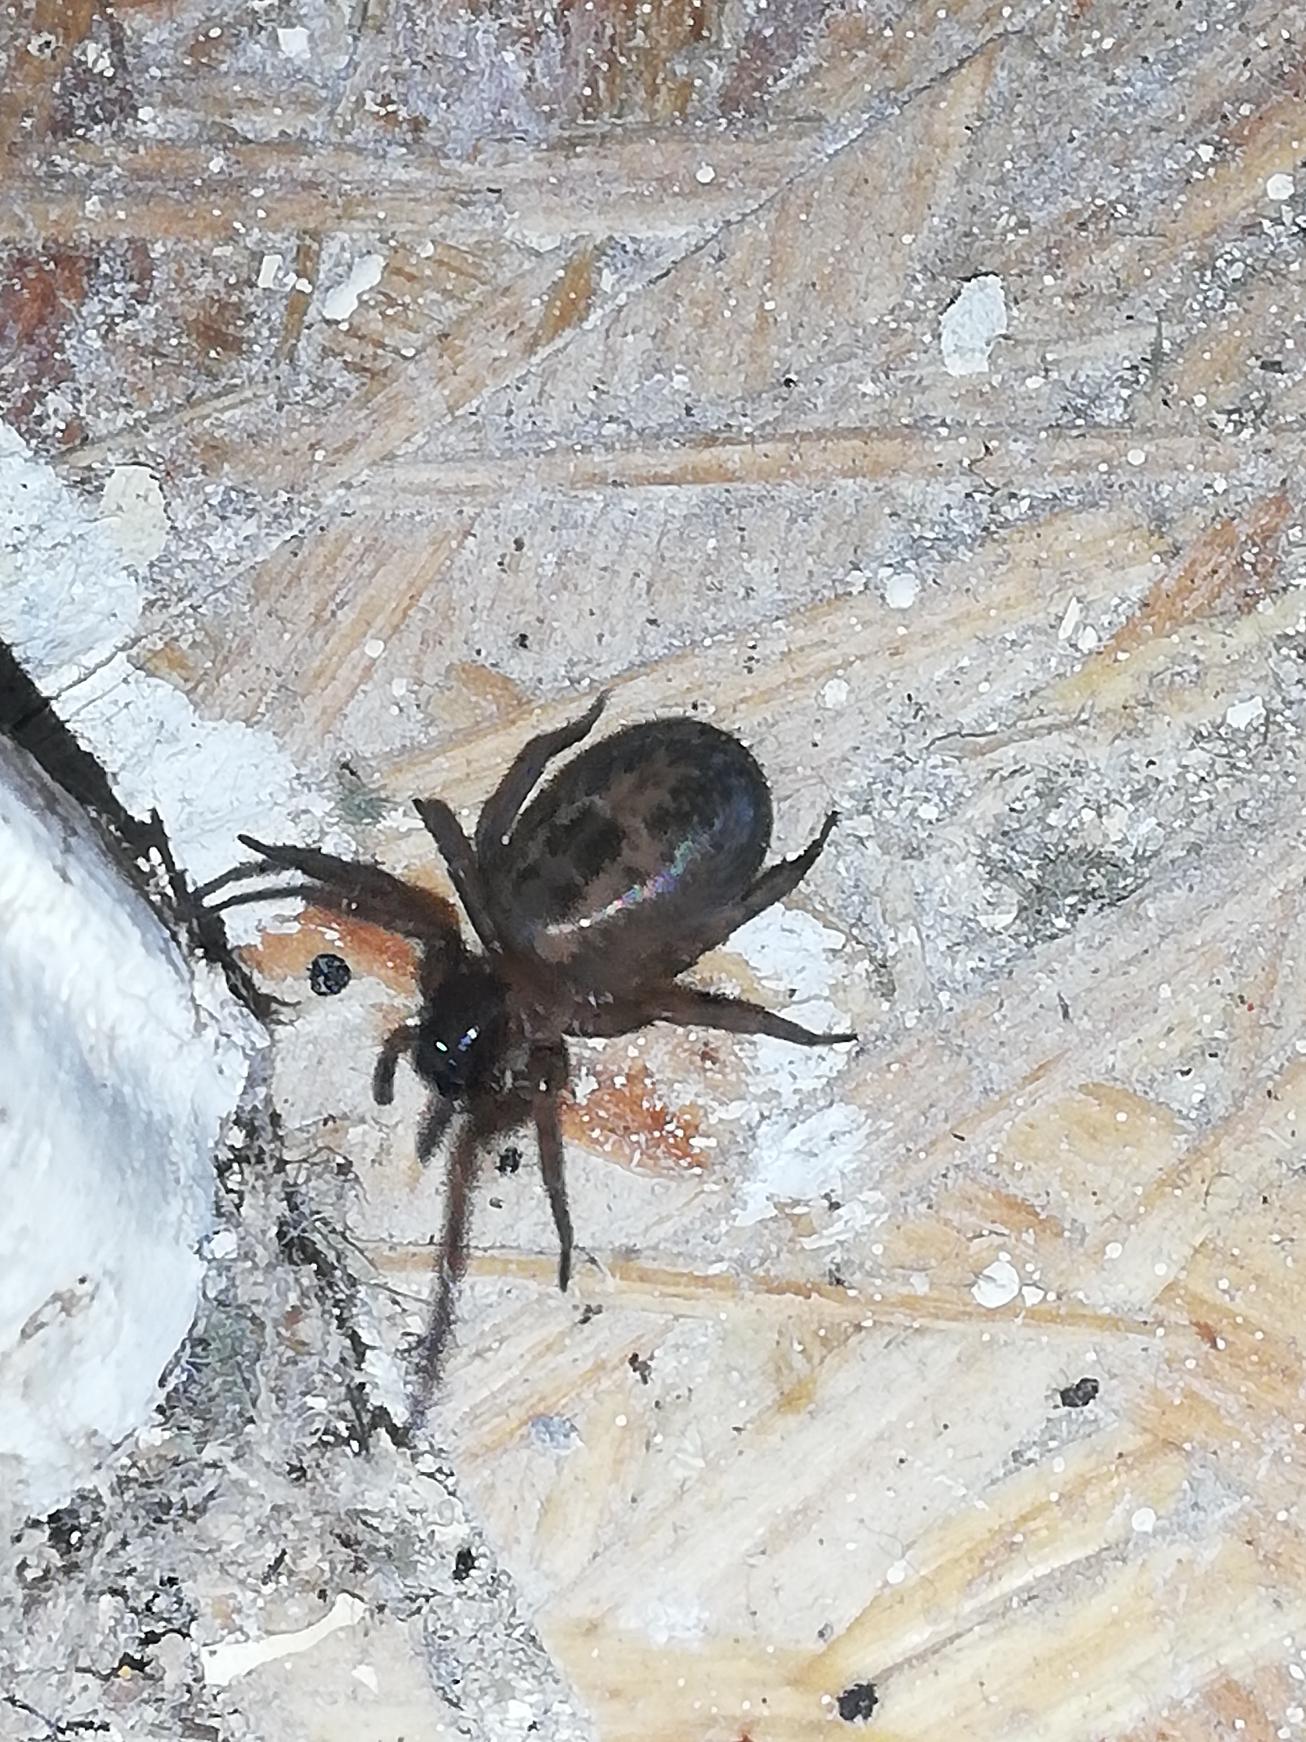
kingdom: Animalia
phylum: Arthropoda
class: Arachnida
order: Araneae
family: Amaurobiidae
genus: Amaurobius
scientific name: Amaurobius similis
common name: Huskartespinder
